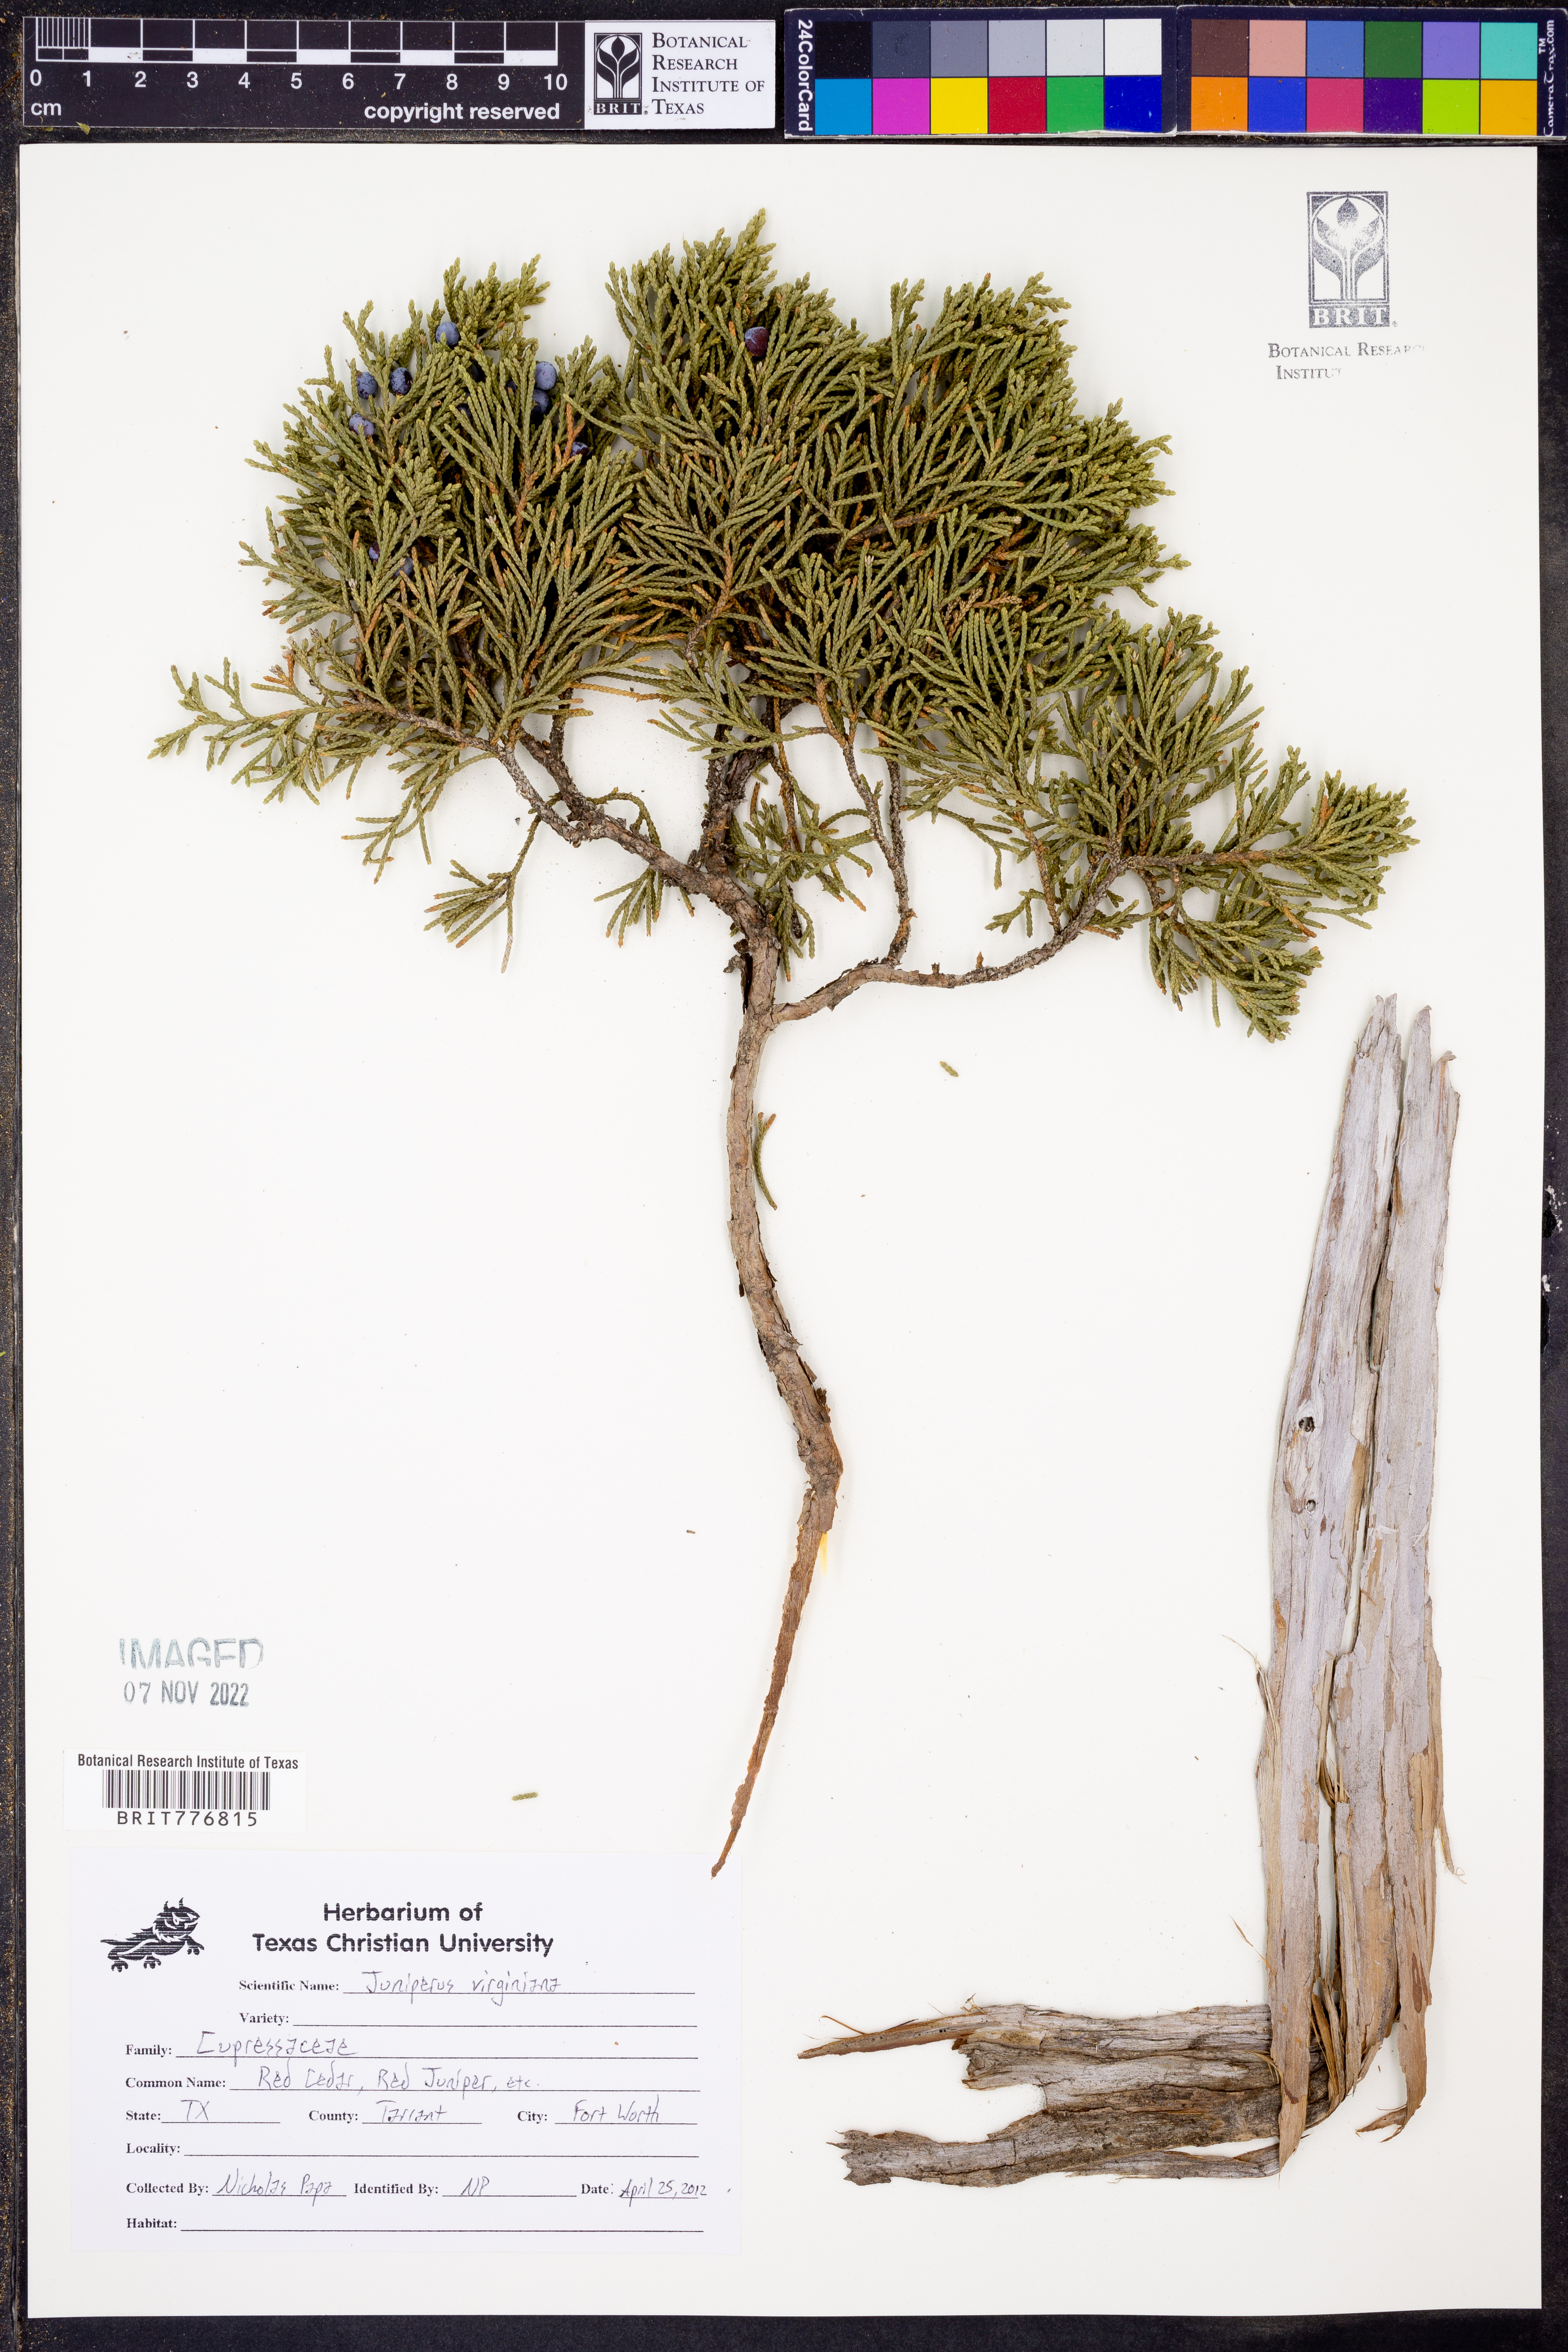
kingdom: Plantae
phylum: Tracheophyta
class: Pinopsida
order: Pinales
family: Cupressaceae
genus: Juniperus
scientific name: Juniperus virginiana
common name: Red juniper
